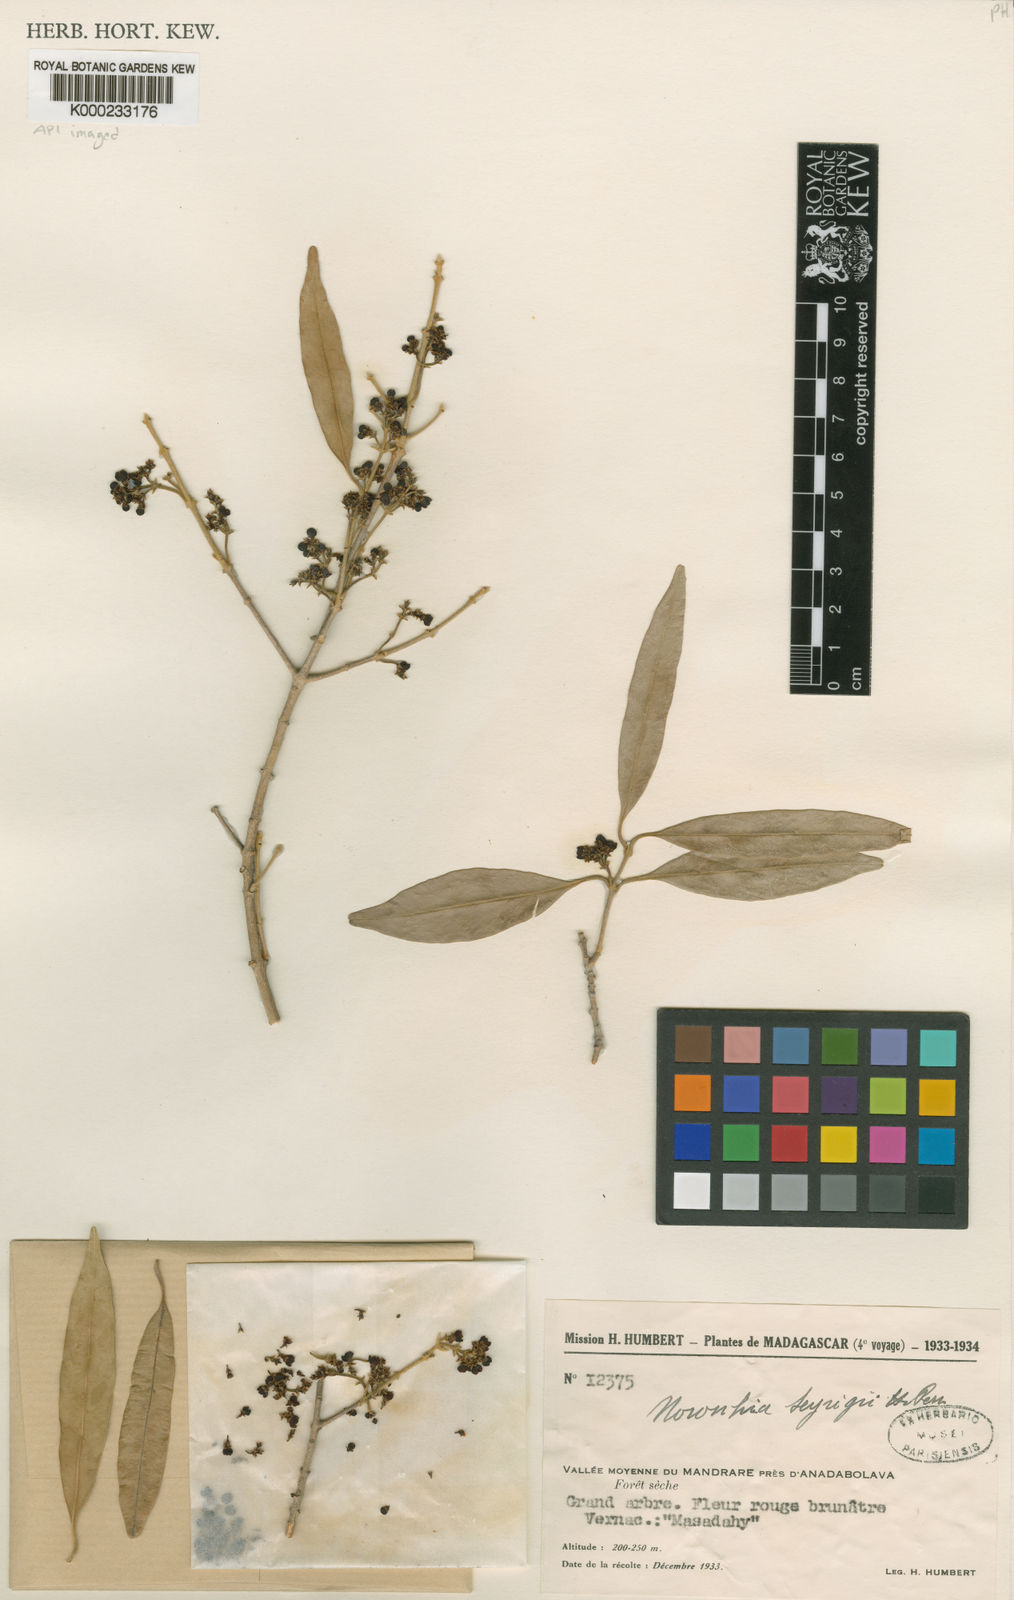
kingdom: Plantae
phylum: Tracheophyta
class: Magnoliopsida
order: Lamiales
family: Oleaceae
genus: Noronhia
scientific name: Noronhia seyrigii
